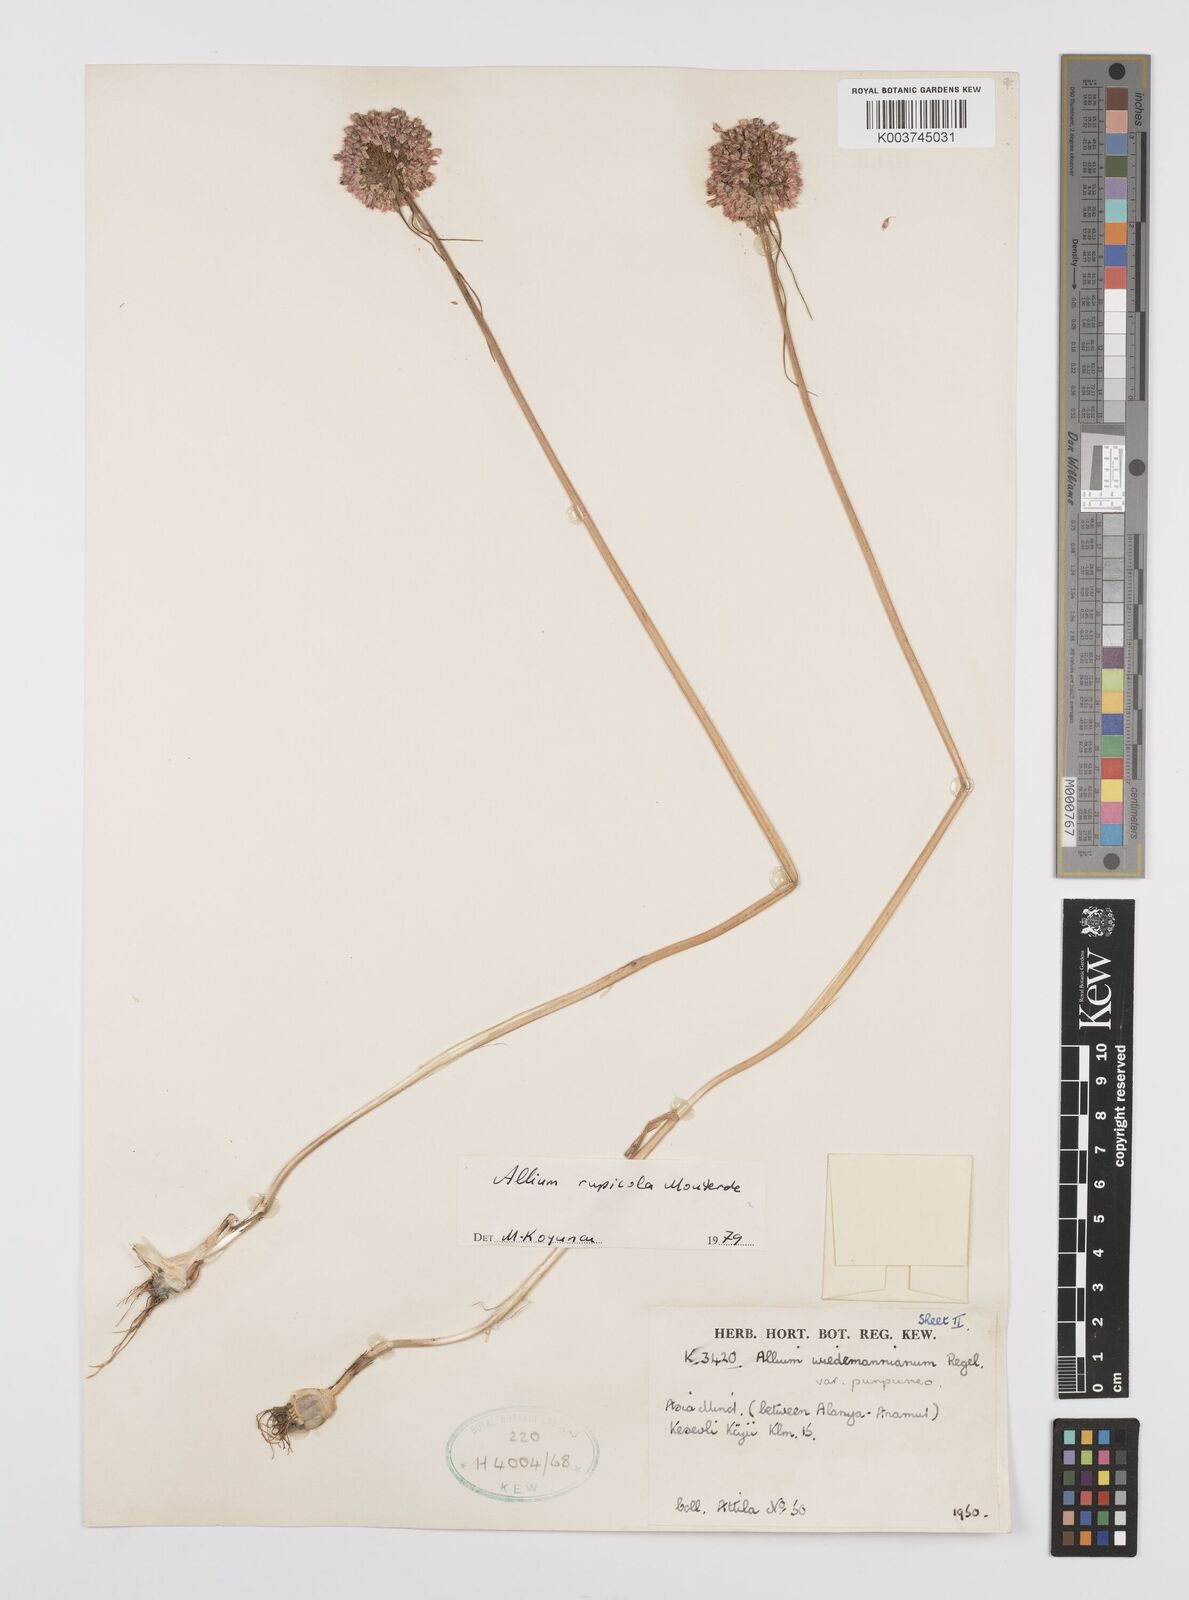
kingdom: Plantae
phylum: Tracheophyta
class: Liliopsida
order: Asparagales
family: Amaryllidaceae
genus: Allium
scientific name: Allium rupicola
